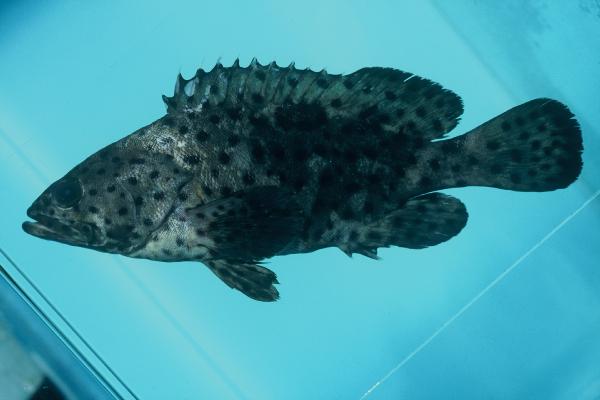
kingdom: Animalia
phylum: Chordata
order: Perciformes
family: Serranidae
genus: Epinephelus
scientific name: Epinephelus corallicola
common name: Coral grouper
